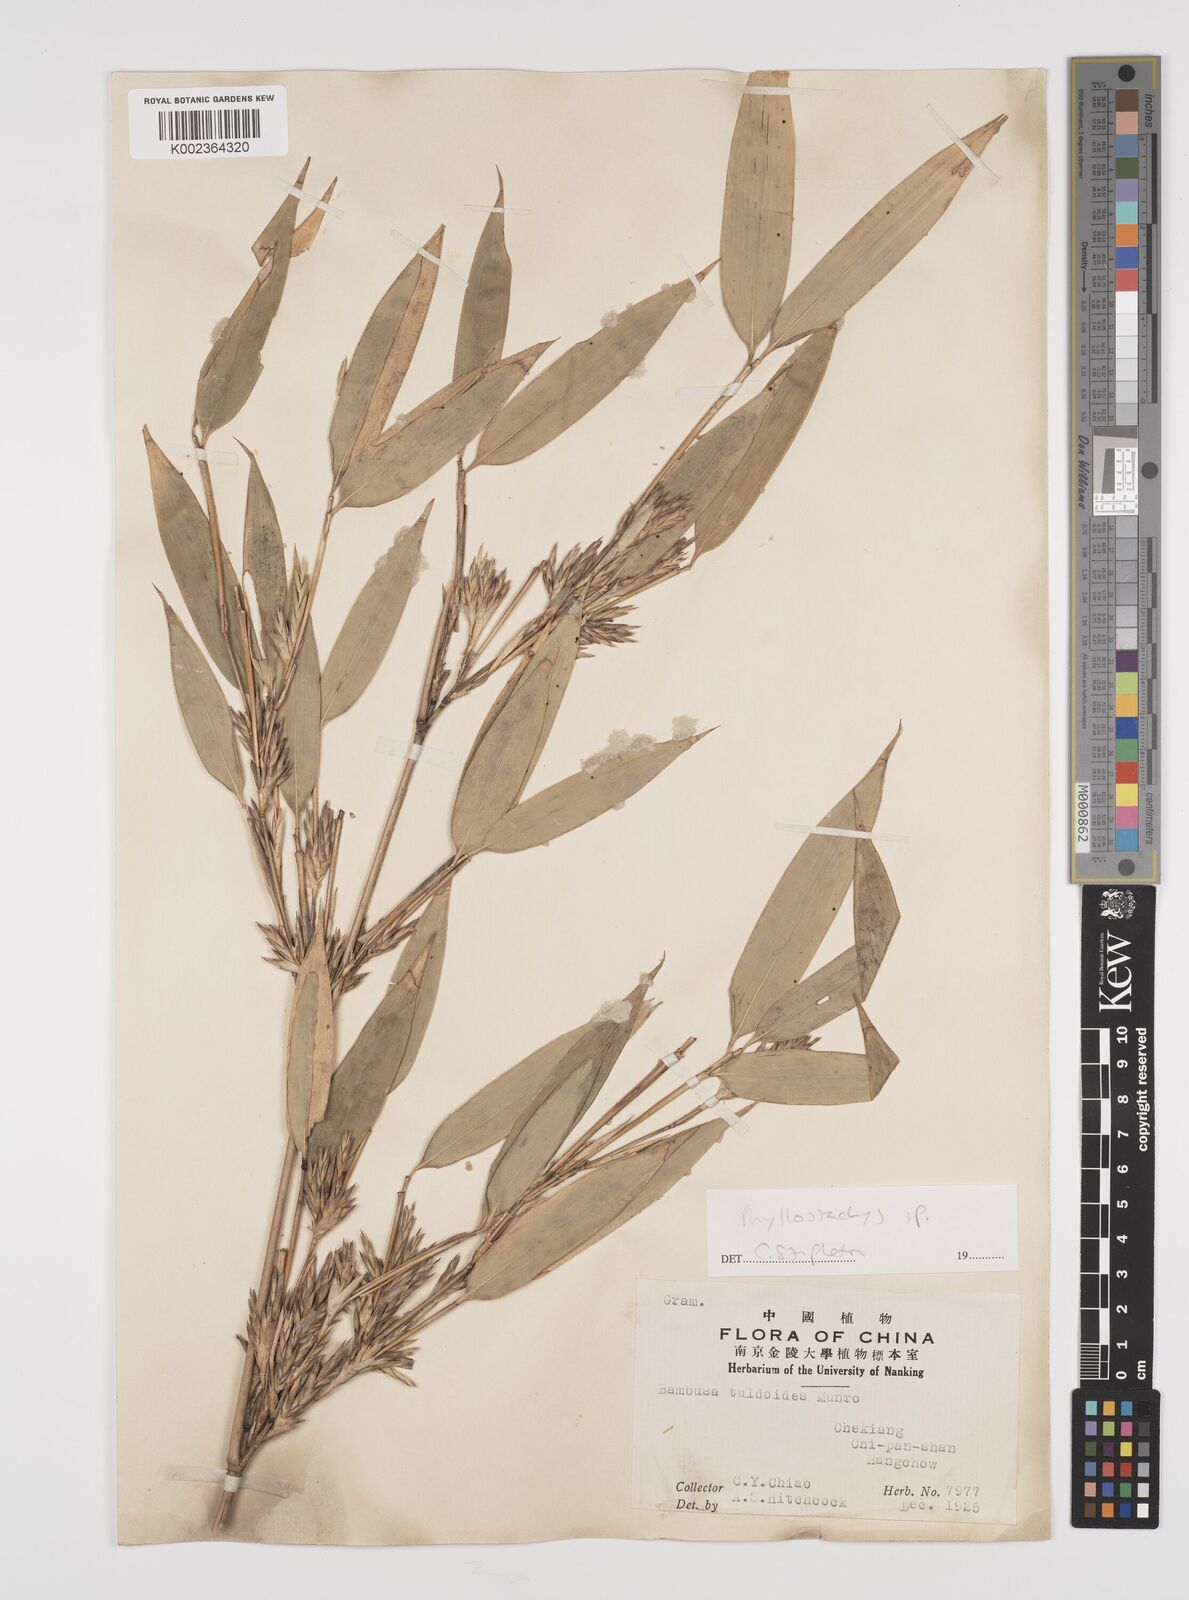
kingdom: Plantae
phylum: Tracheophyta
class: Liliopsida
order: Poales
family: Poaceae
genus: Phyllostachys
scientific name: Phyllostachys
